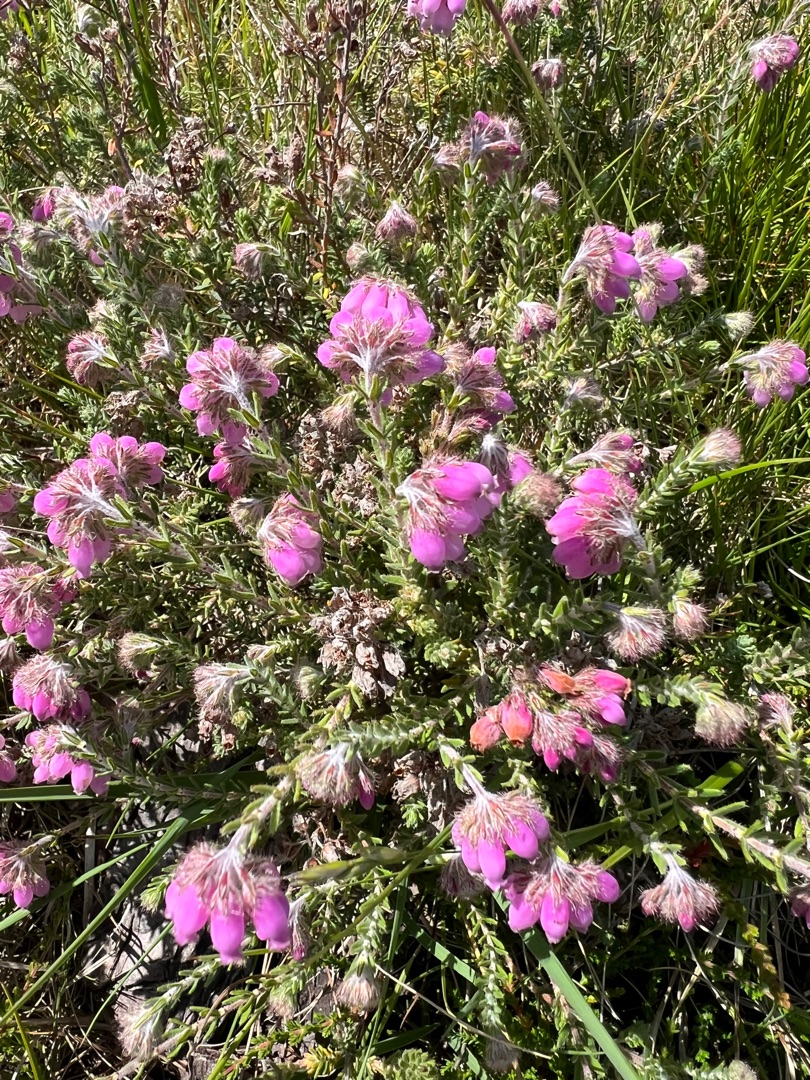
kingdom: Plantae
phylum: Tracheophyta
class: Magnoliopsida
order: Ericales
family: Ericaceae
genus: Erica
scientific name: Erica tetralix
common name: Klokkelyng
